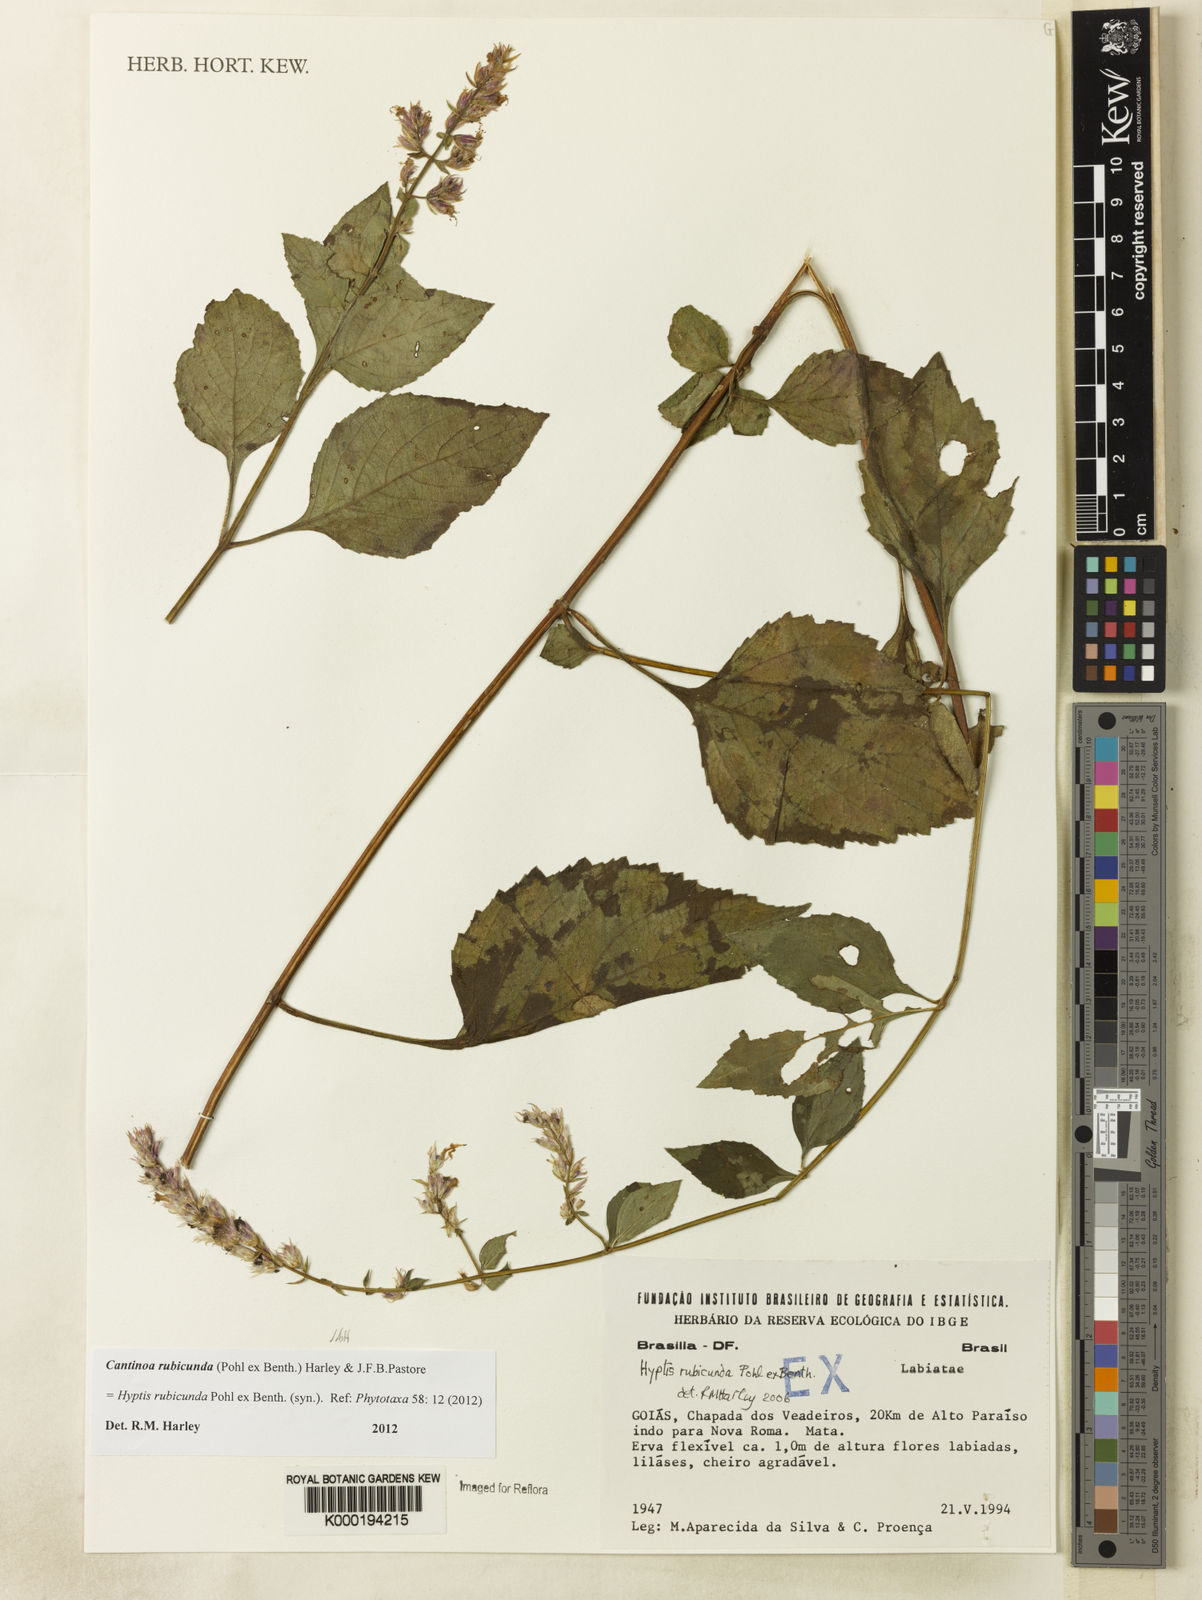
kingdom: Plantae
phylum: Tracheophyta
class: Magnoliopsida
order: Lamiales
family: Lamiaceae
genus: Cantinoa
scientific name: Cantinoa rubicunda
